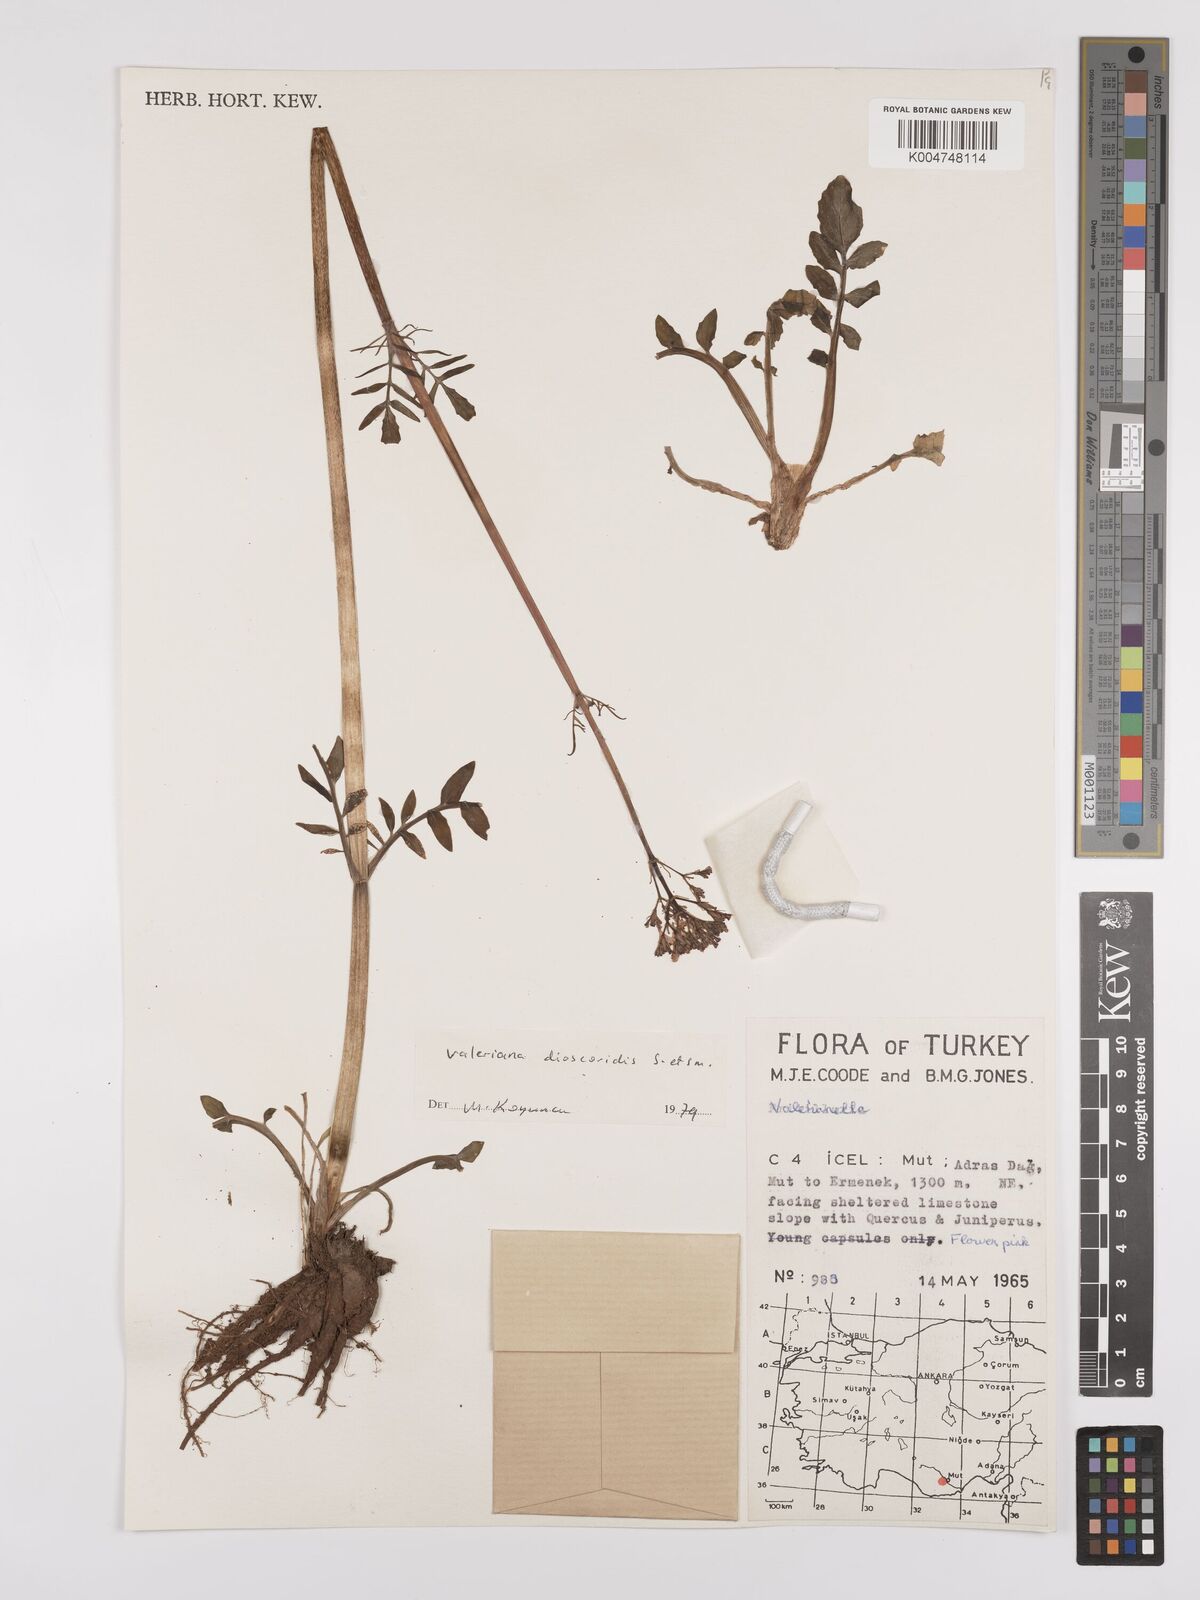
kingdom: Plantae
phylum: Tracheophyta
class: Magnoliopsida
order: Dipsacales
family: Caprifoliaceae
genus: Valeriana
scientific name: Valeriana
